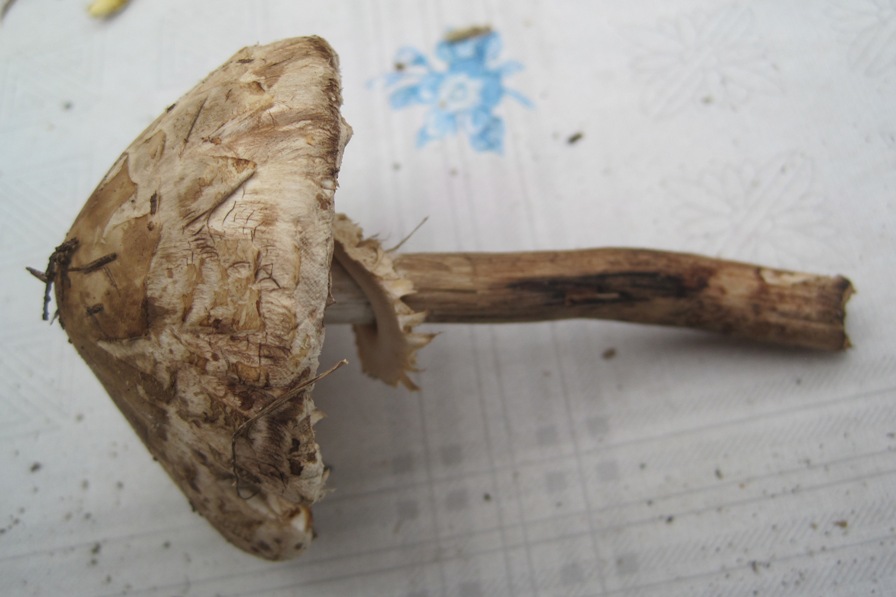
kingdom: Fungi
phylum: Basidiomycota
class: Agaricomycetes
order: Agaricales
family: Agaricaceae
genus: Chlorophyllum
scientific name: Chlorophyllum olivieri
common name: almindelig rabarberhat
